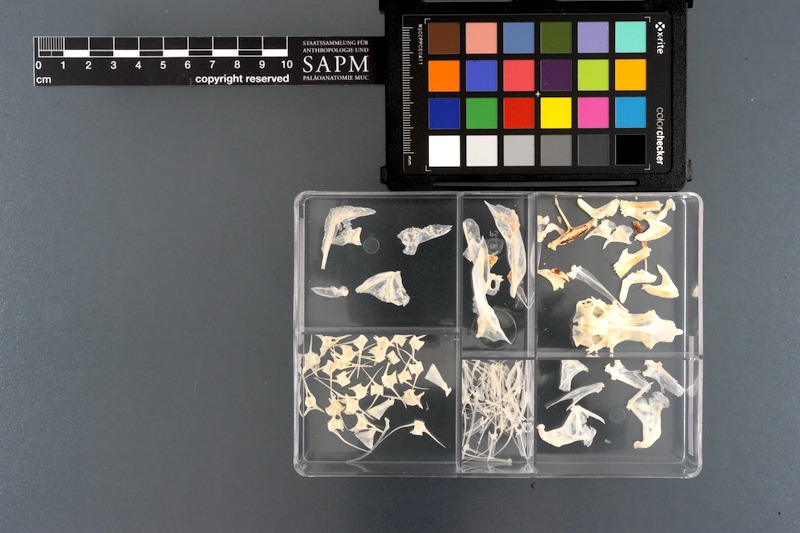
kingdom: Animalia
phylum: Chordata
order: Perciformes
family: Scaridae
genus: Leptoscarus
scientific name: Leptoscarus vaigiensis
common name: Marbled parrotfish
